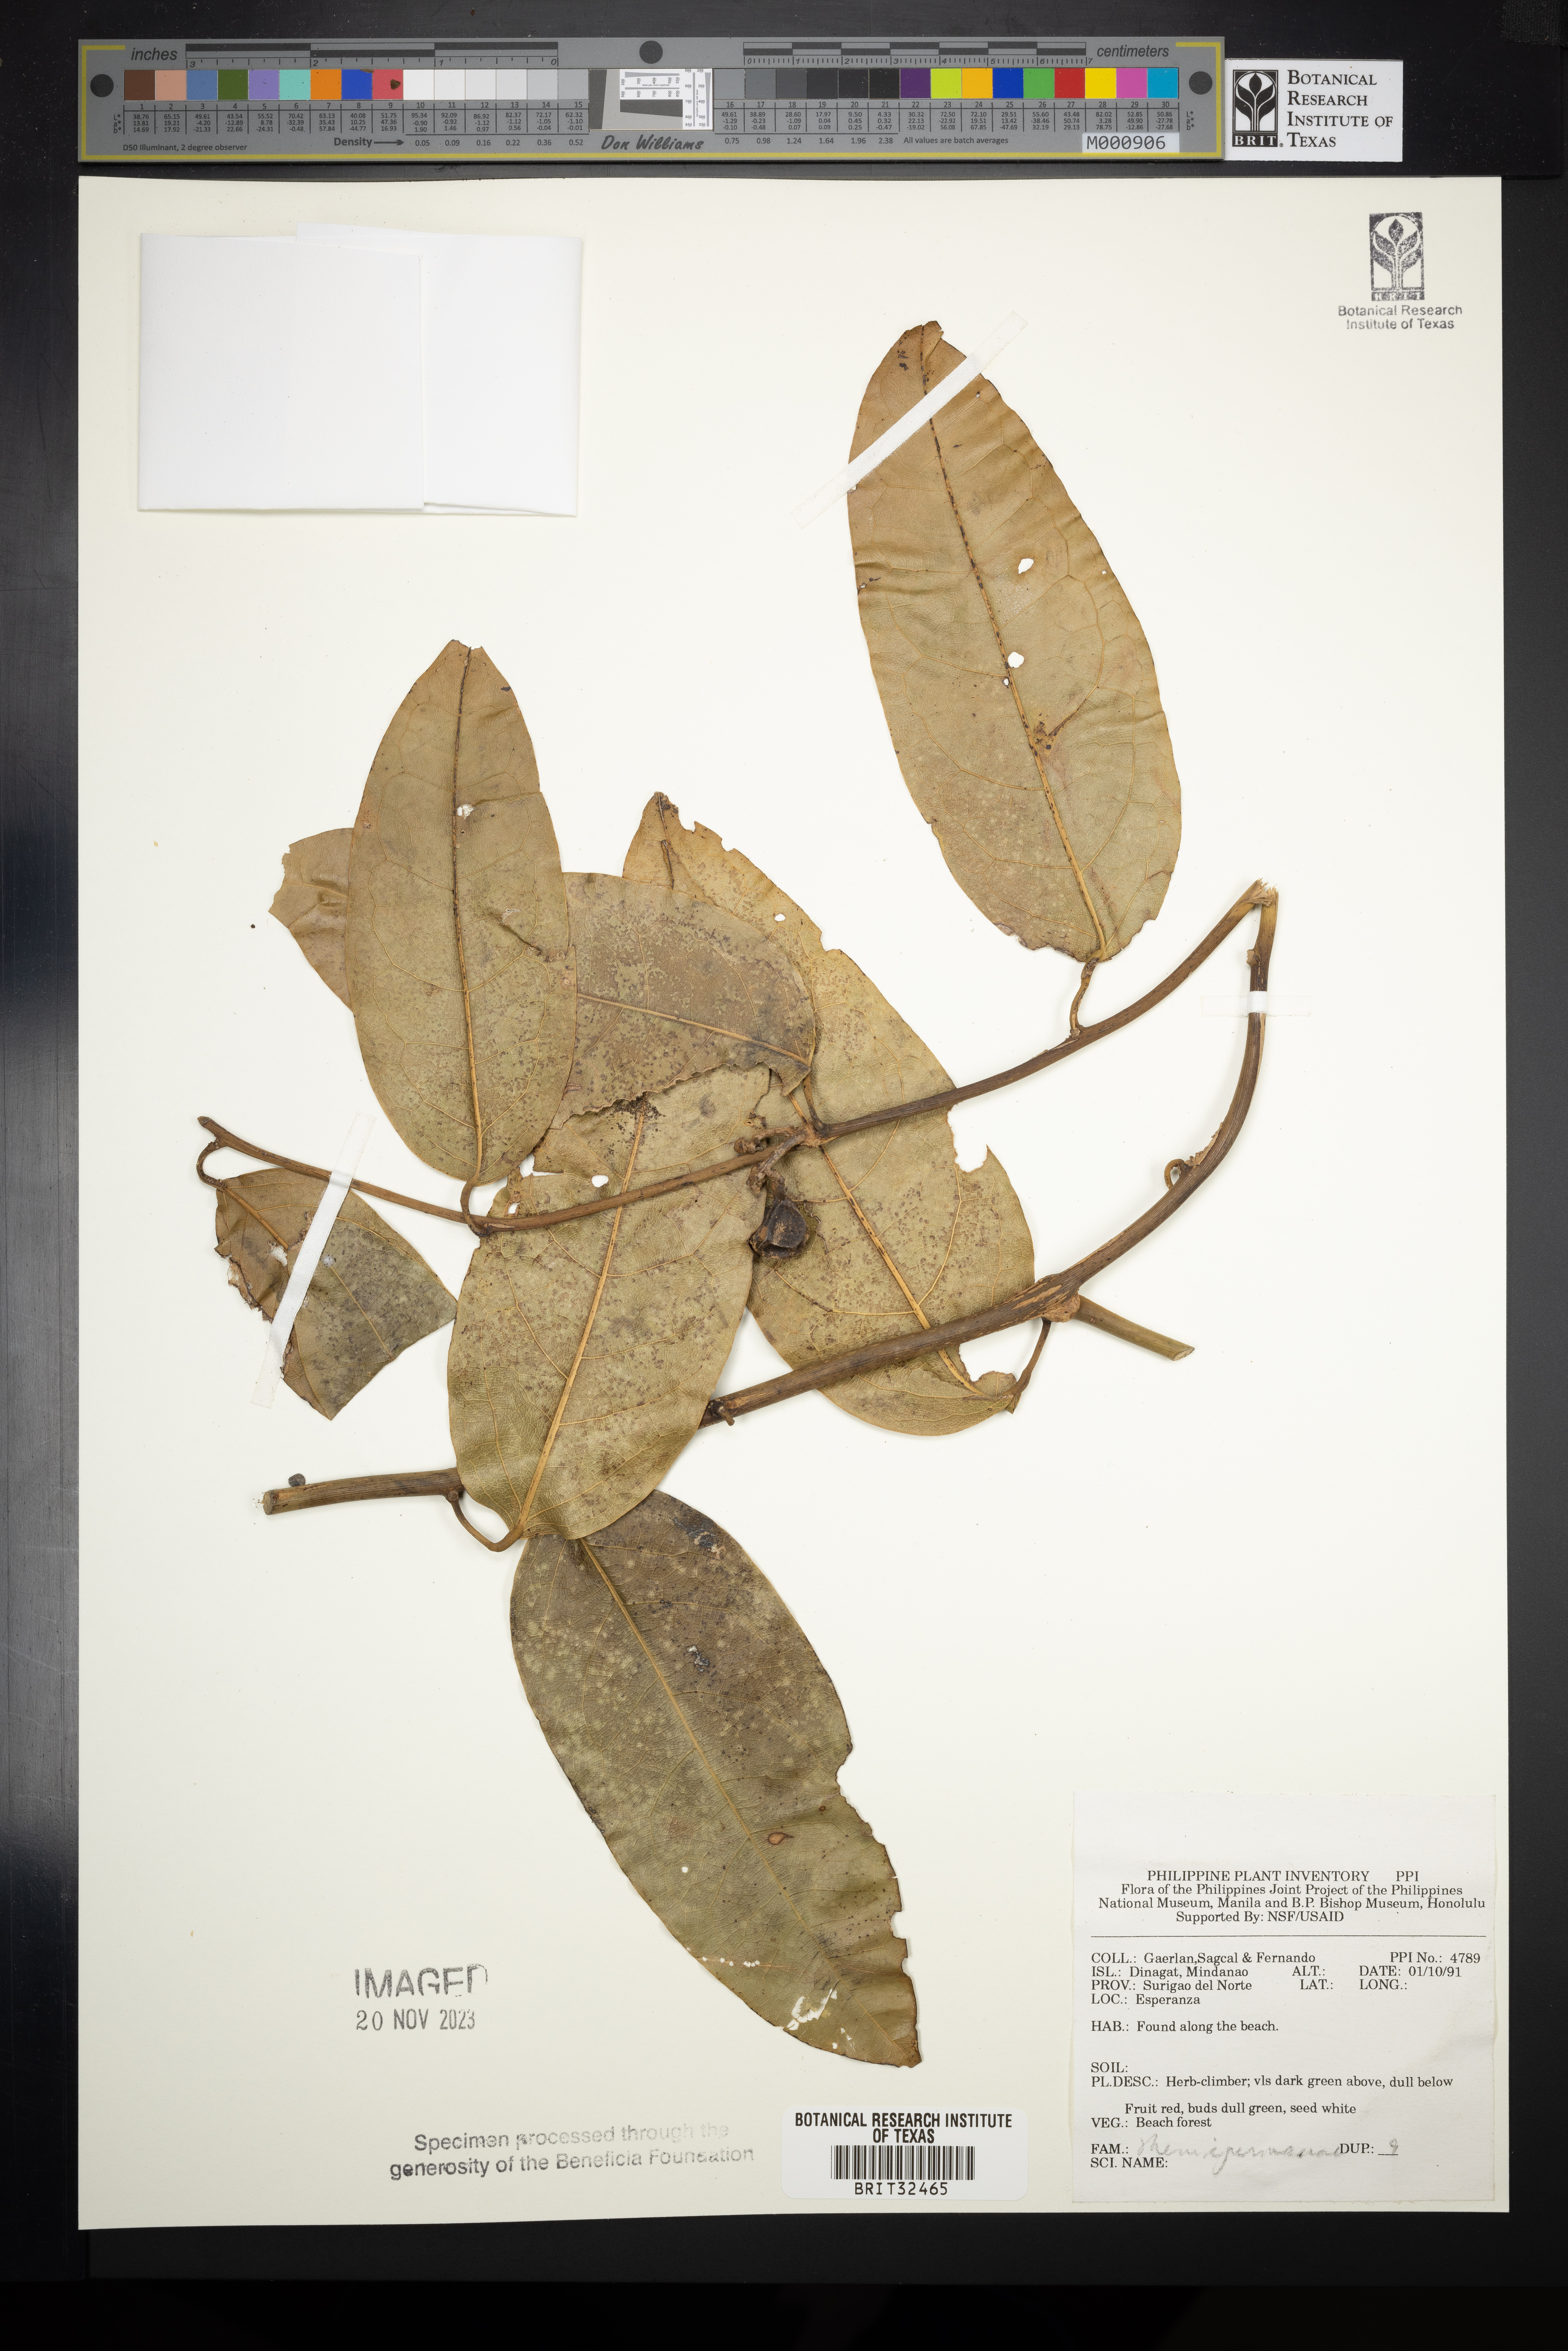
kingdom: Plantae
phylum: Tracheophyta
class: Magnoliopsida
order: Ranunculales
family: Menispermaceae
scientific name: Menispermaceae
